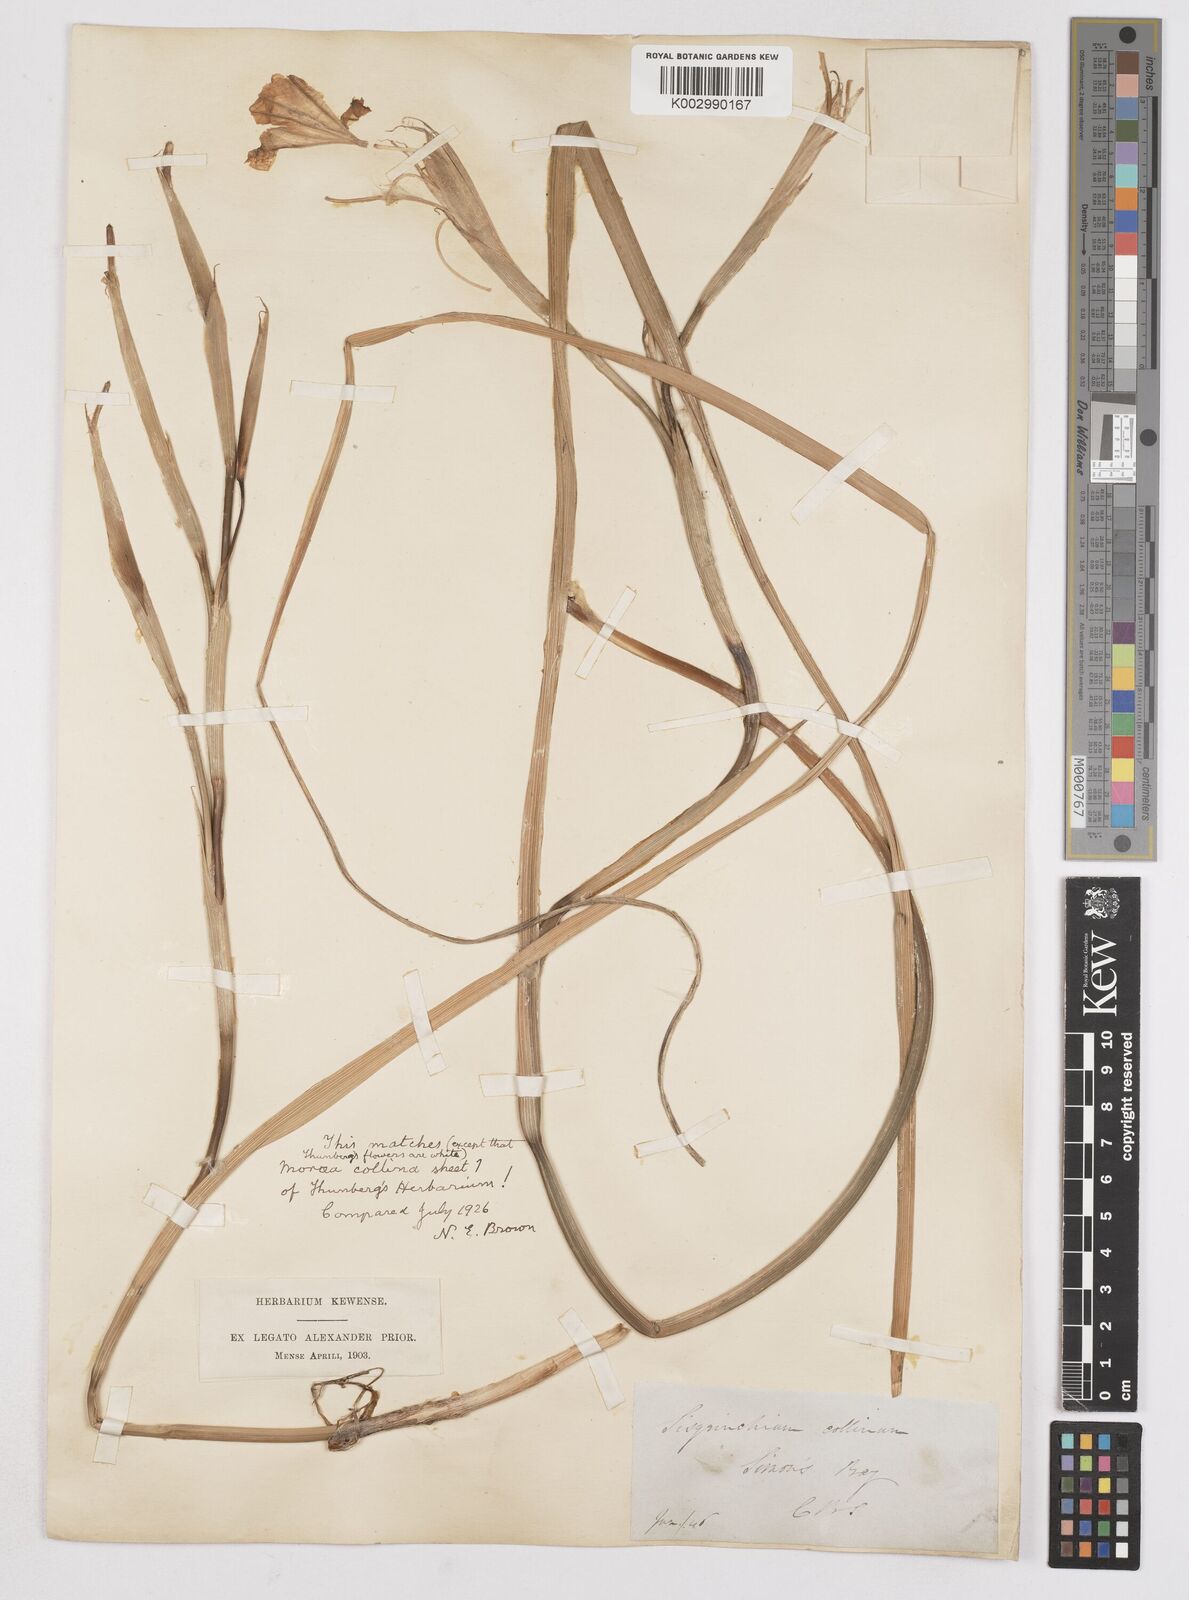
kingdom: Plantae
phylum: Tracheophyta
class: Liliopsida
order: Asparagales
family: Iridaceae
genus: Moraea
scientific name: Moraea collina
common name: Cape-tulip
